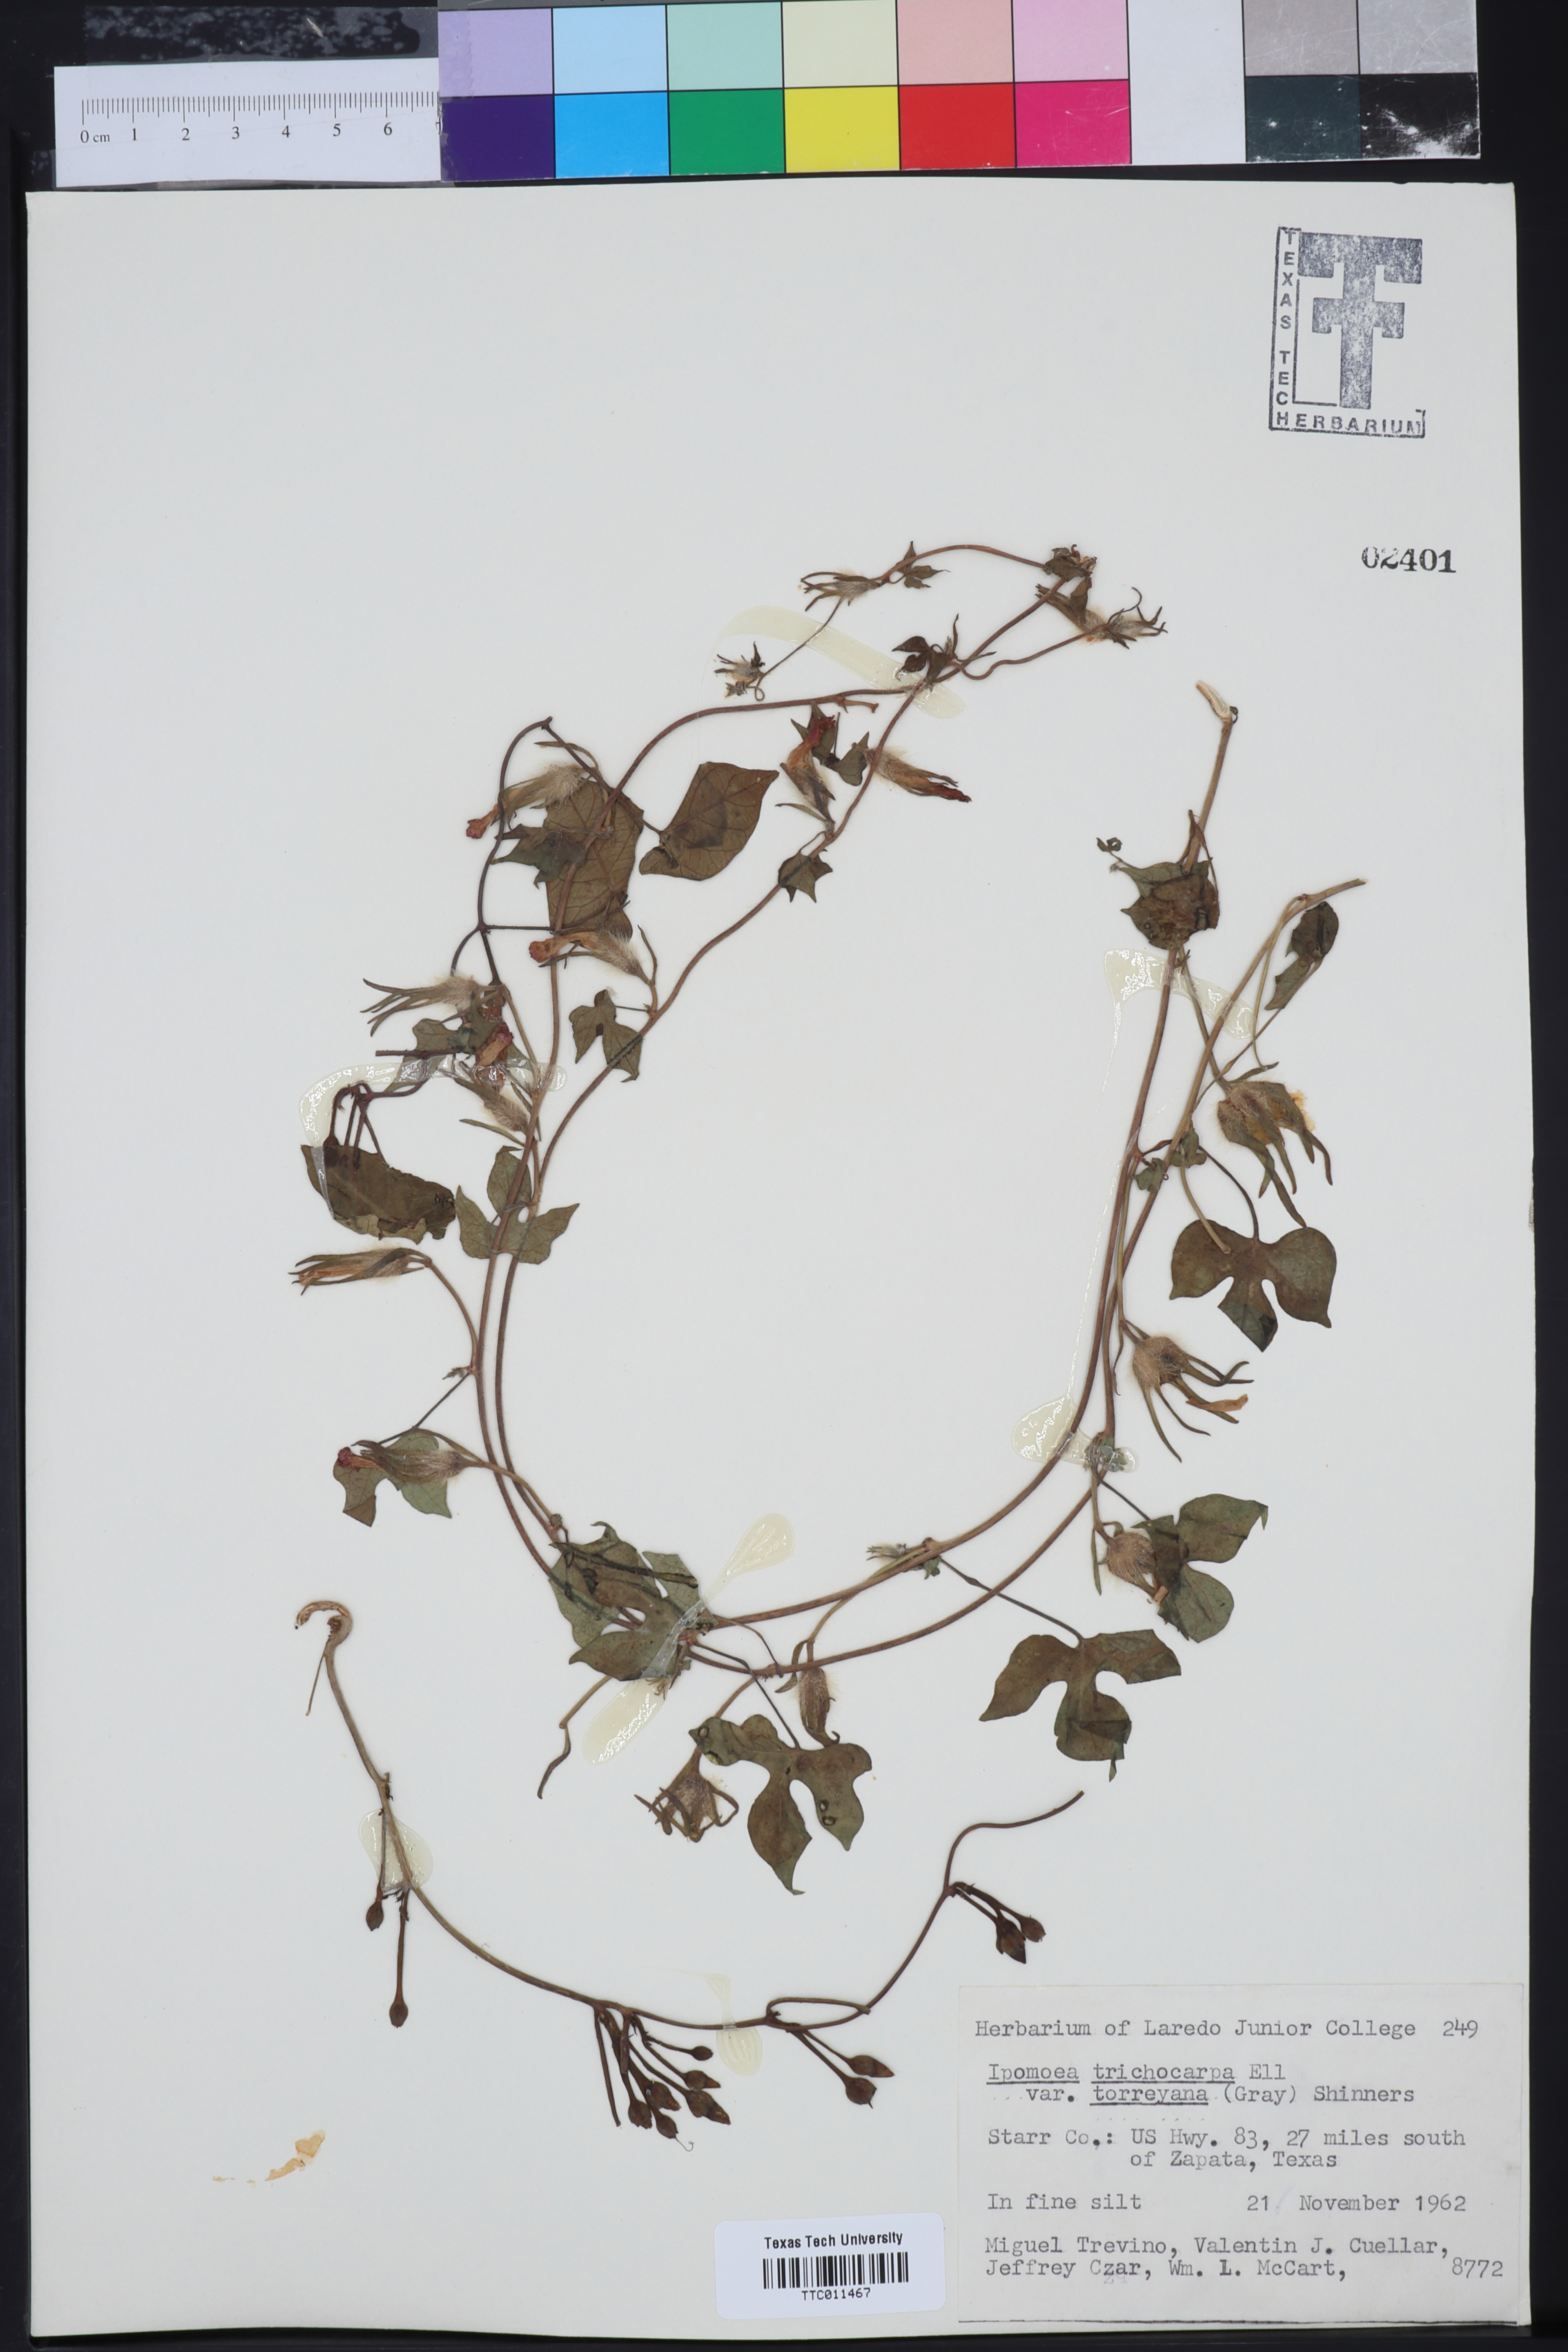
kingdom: Plantae
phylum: Tracheophyta
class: Magnoliopsida
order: Solanales
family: Convolvulaceae
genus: Ipomoea
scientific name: Ipomoea cordatotriloba
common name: Cotton morning glory
